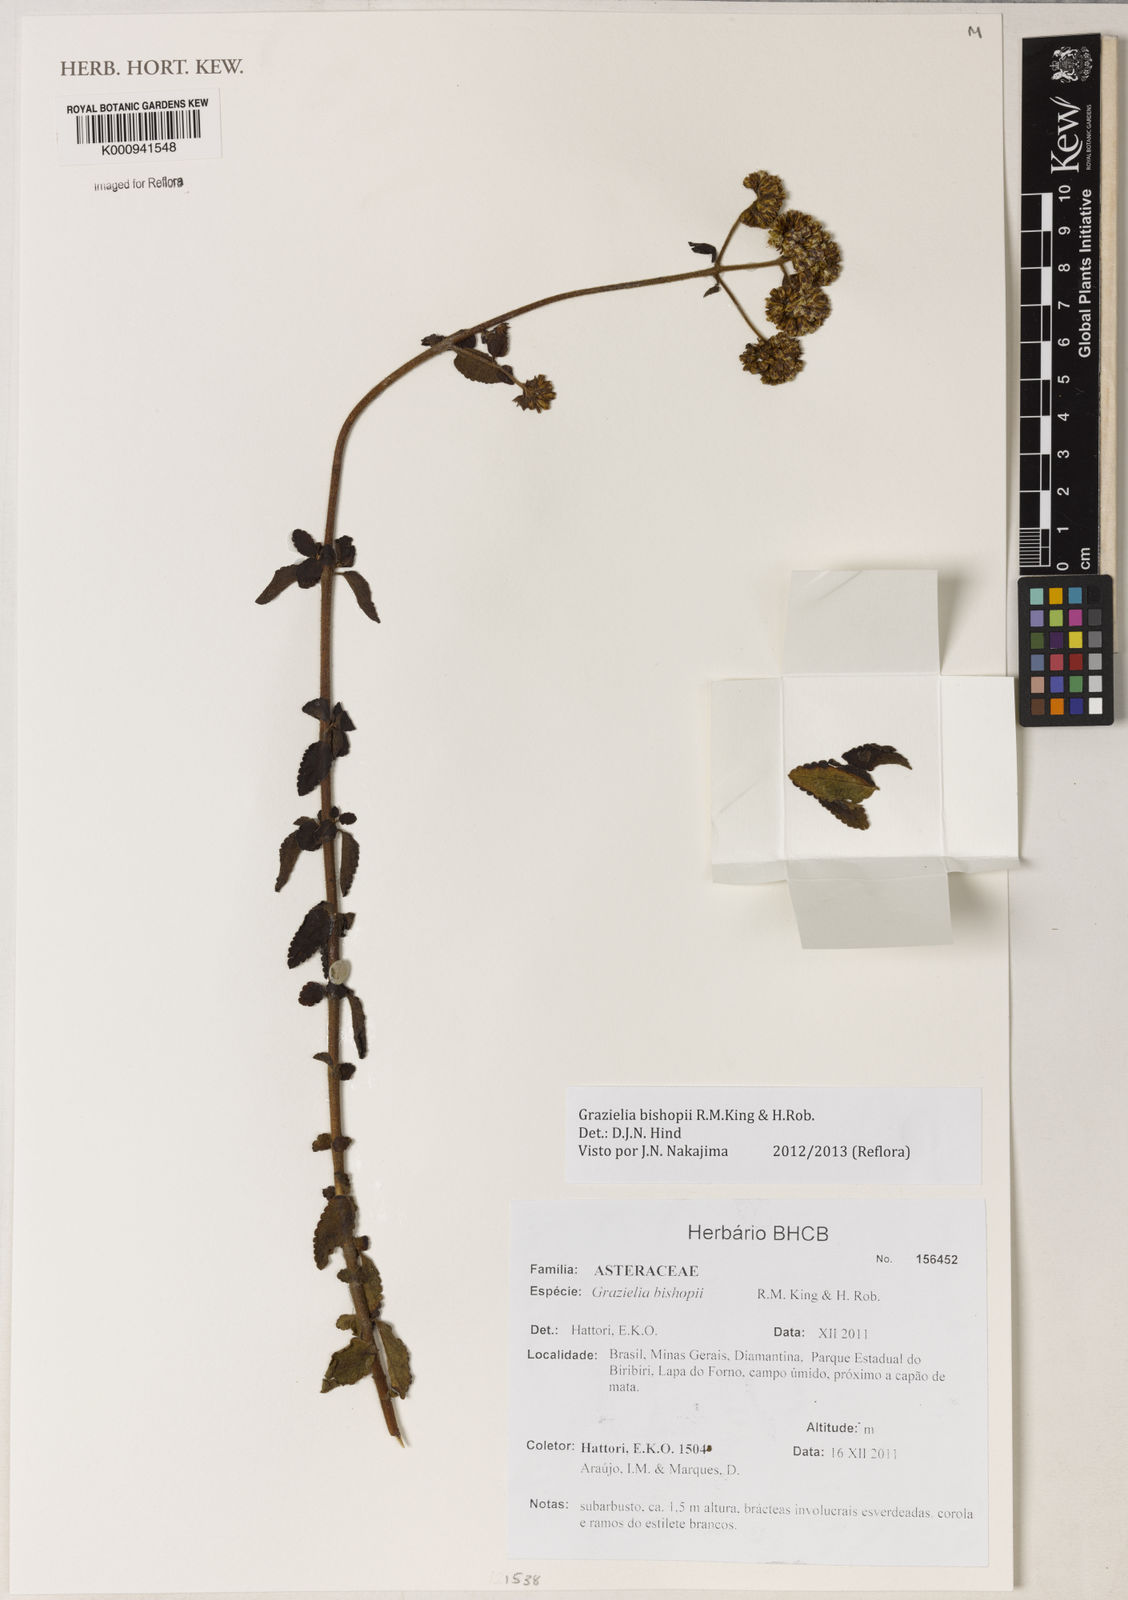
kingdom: Plantae
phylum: Tracheophyta
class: Magnoliopsida
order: Asterales
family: Asteraceae
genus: Grazielia
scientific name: Grazielia bishopii
